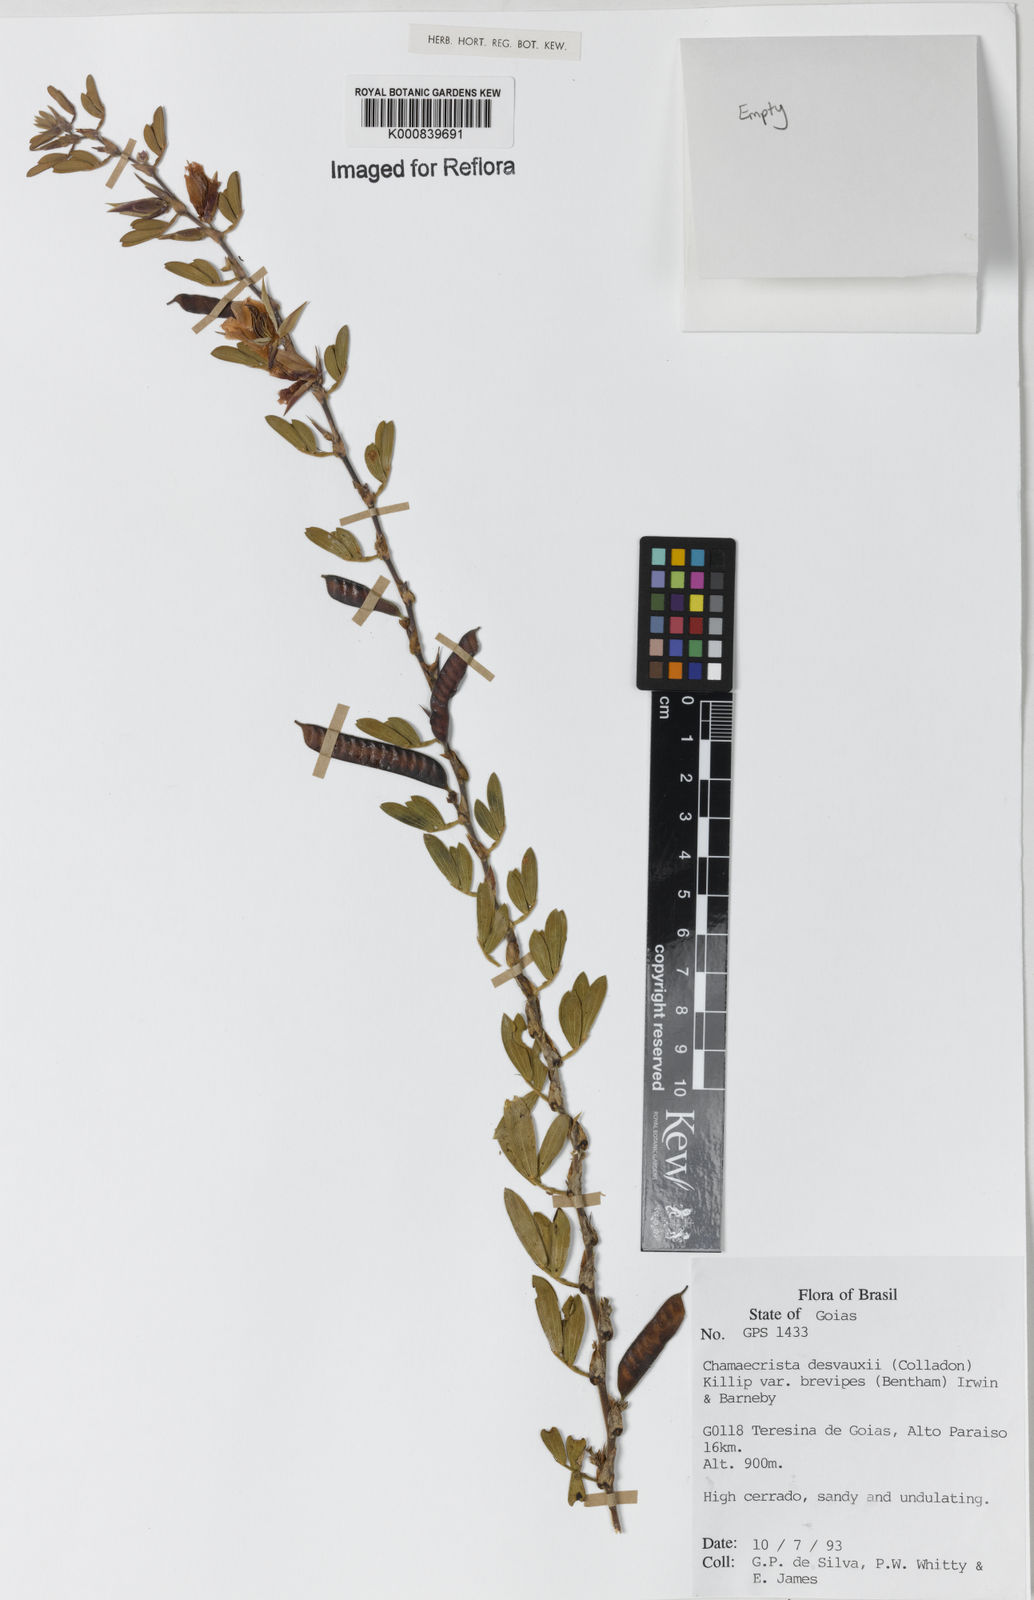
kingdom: Plantae
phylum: Tracheophyta
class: Magnoliopsida
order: Fabales
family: Fabaceae
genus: Chamaecrista
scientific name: Chamaecrista desvauxii
